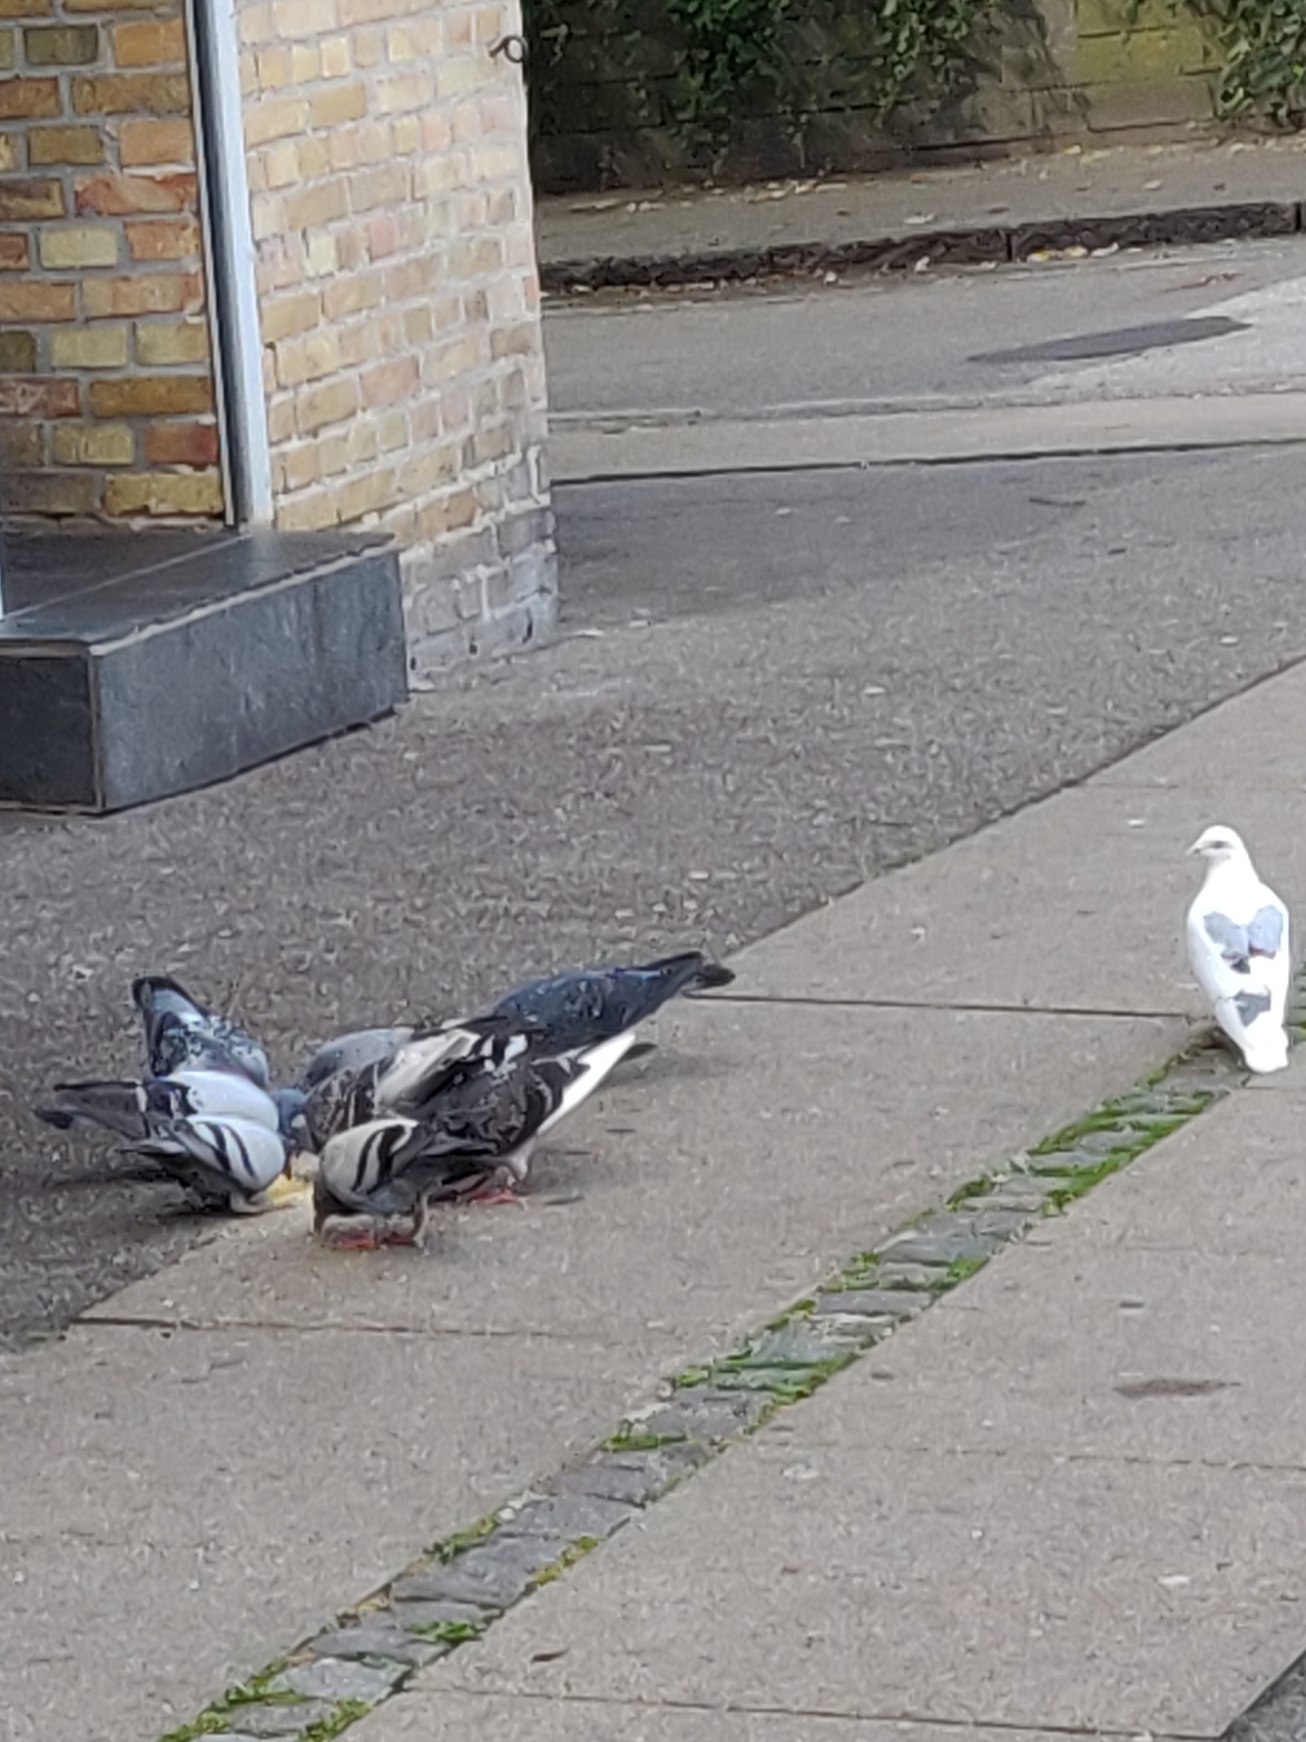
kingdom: Animalia
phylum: Chordata
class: Aves
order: Columbiformes
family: Columbidae
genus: Columba
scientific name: Columba livia
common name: Klippedue
